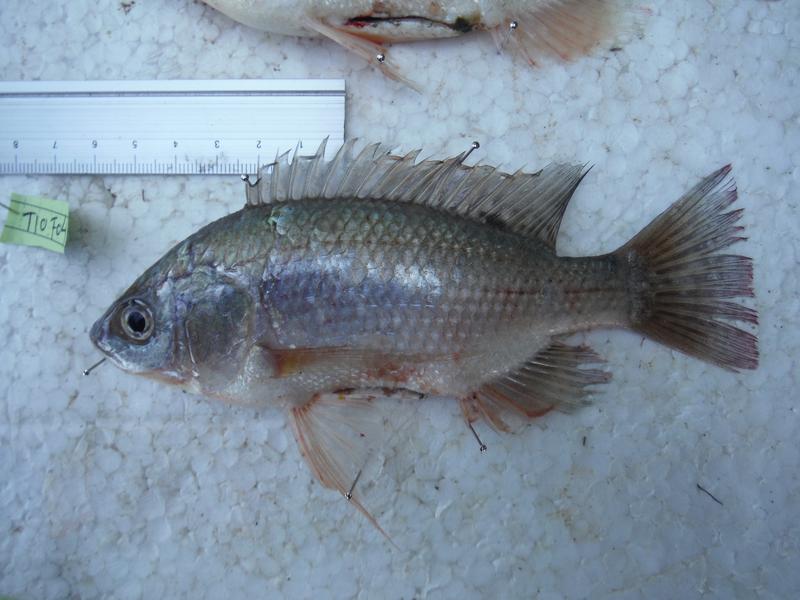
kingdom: Animalia
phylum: Chordata
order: Perciformes
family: Cichlidae
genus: Oreochromis
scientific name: Oreochromis esculentus
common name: Carp
